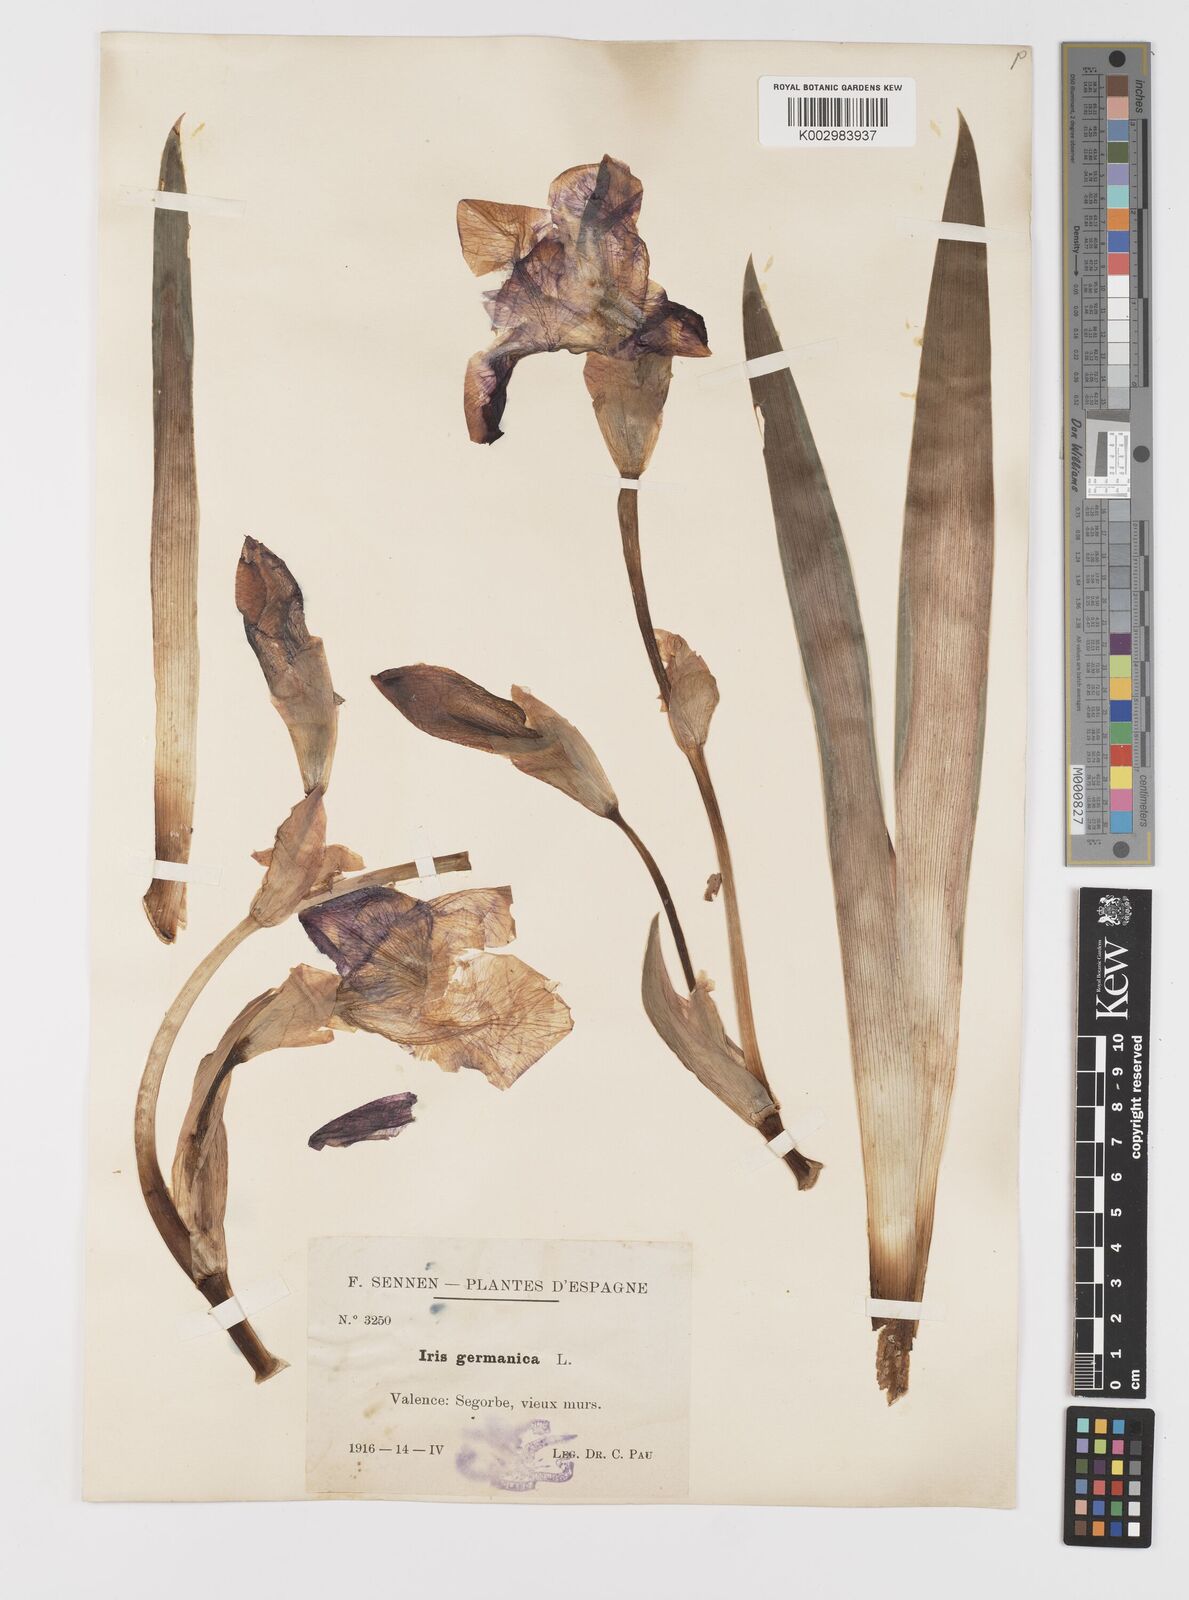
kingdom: Plantae
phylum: Tracheophyta
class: Liliopsida
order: Asparagales
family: Iridaceae
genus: Iris
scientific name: Iris germanica
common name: German iris
